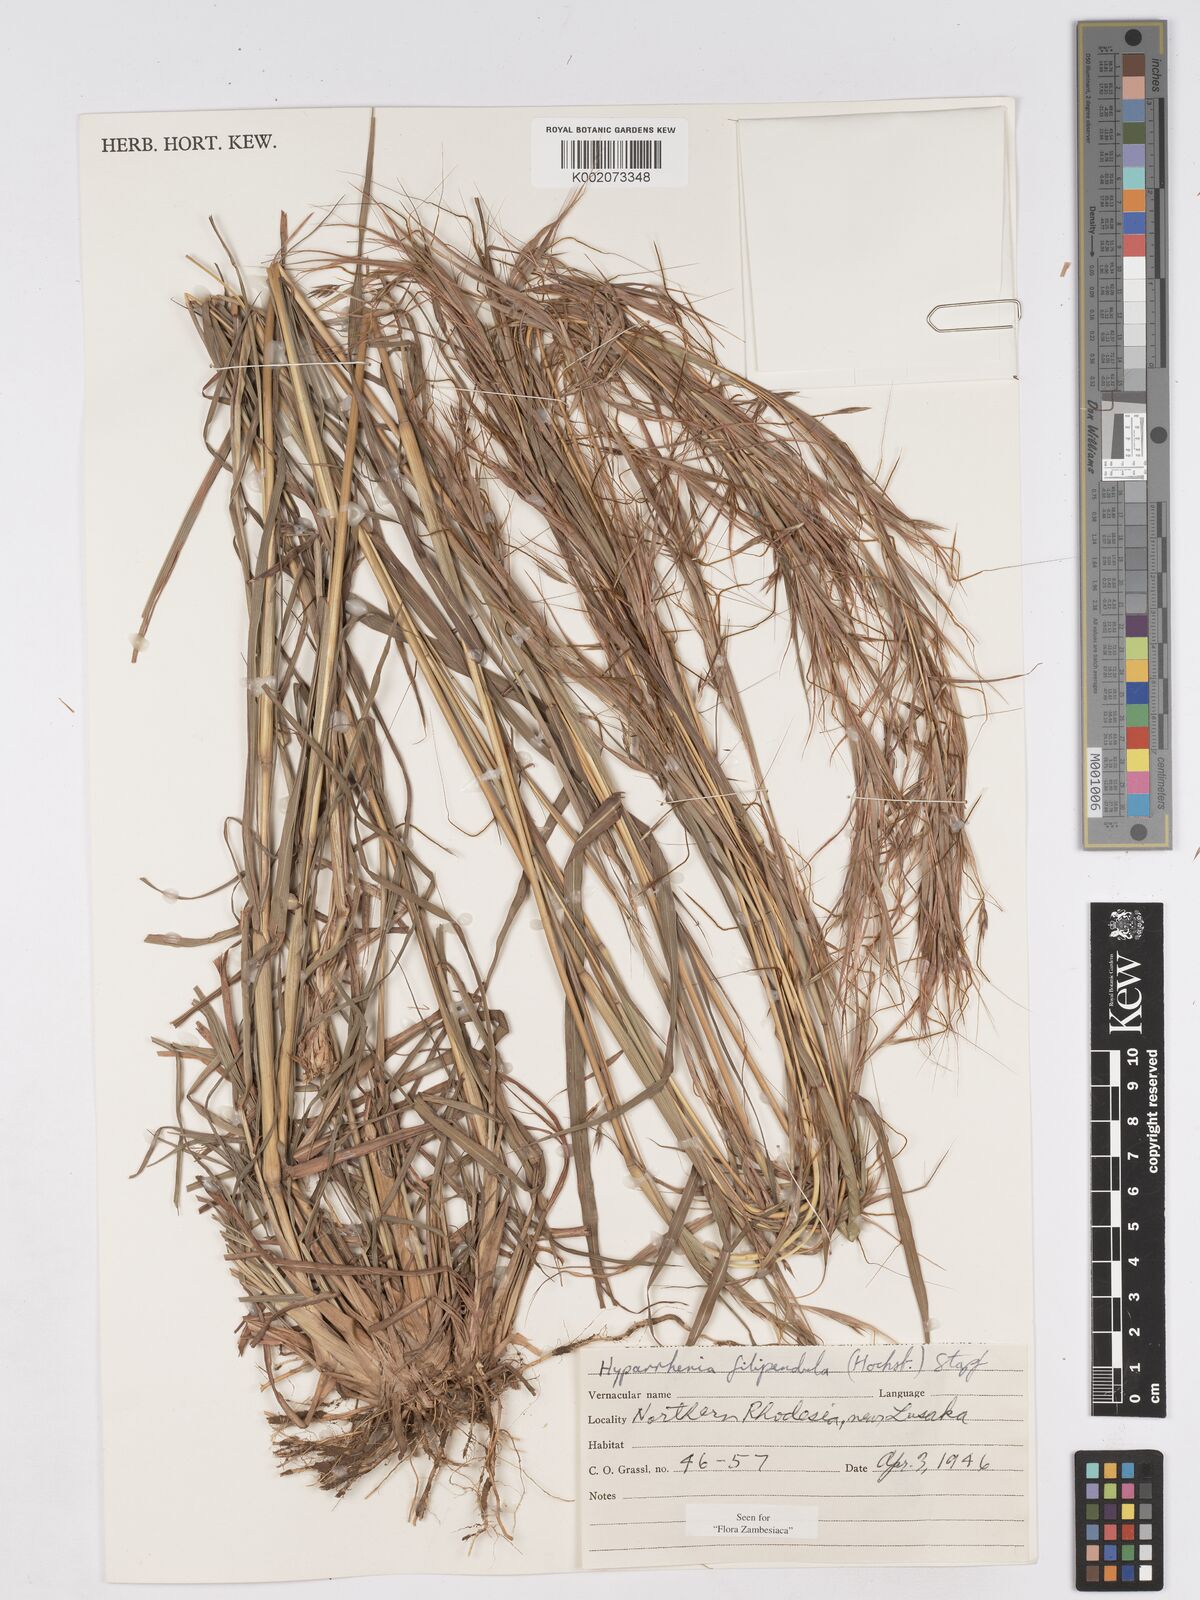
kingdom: Plantae
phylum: Tracheophyta
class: Liliopsida
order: Poales
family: Poaceae
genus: Hyparrhenia
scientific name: Hyparrhenia filipendula
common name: Tambookie grass
